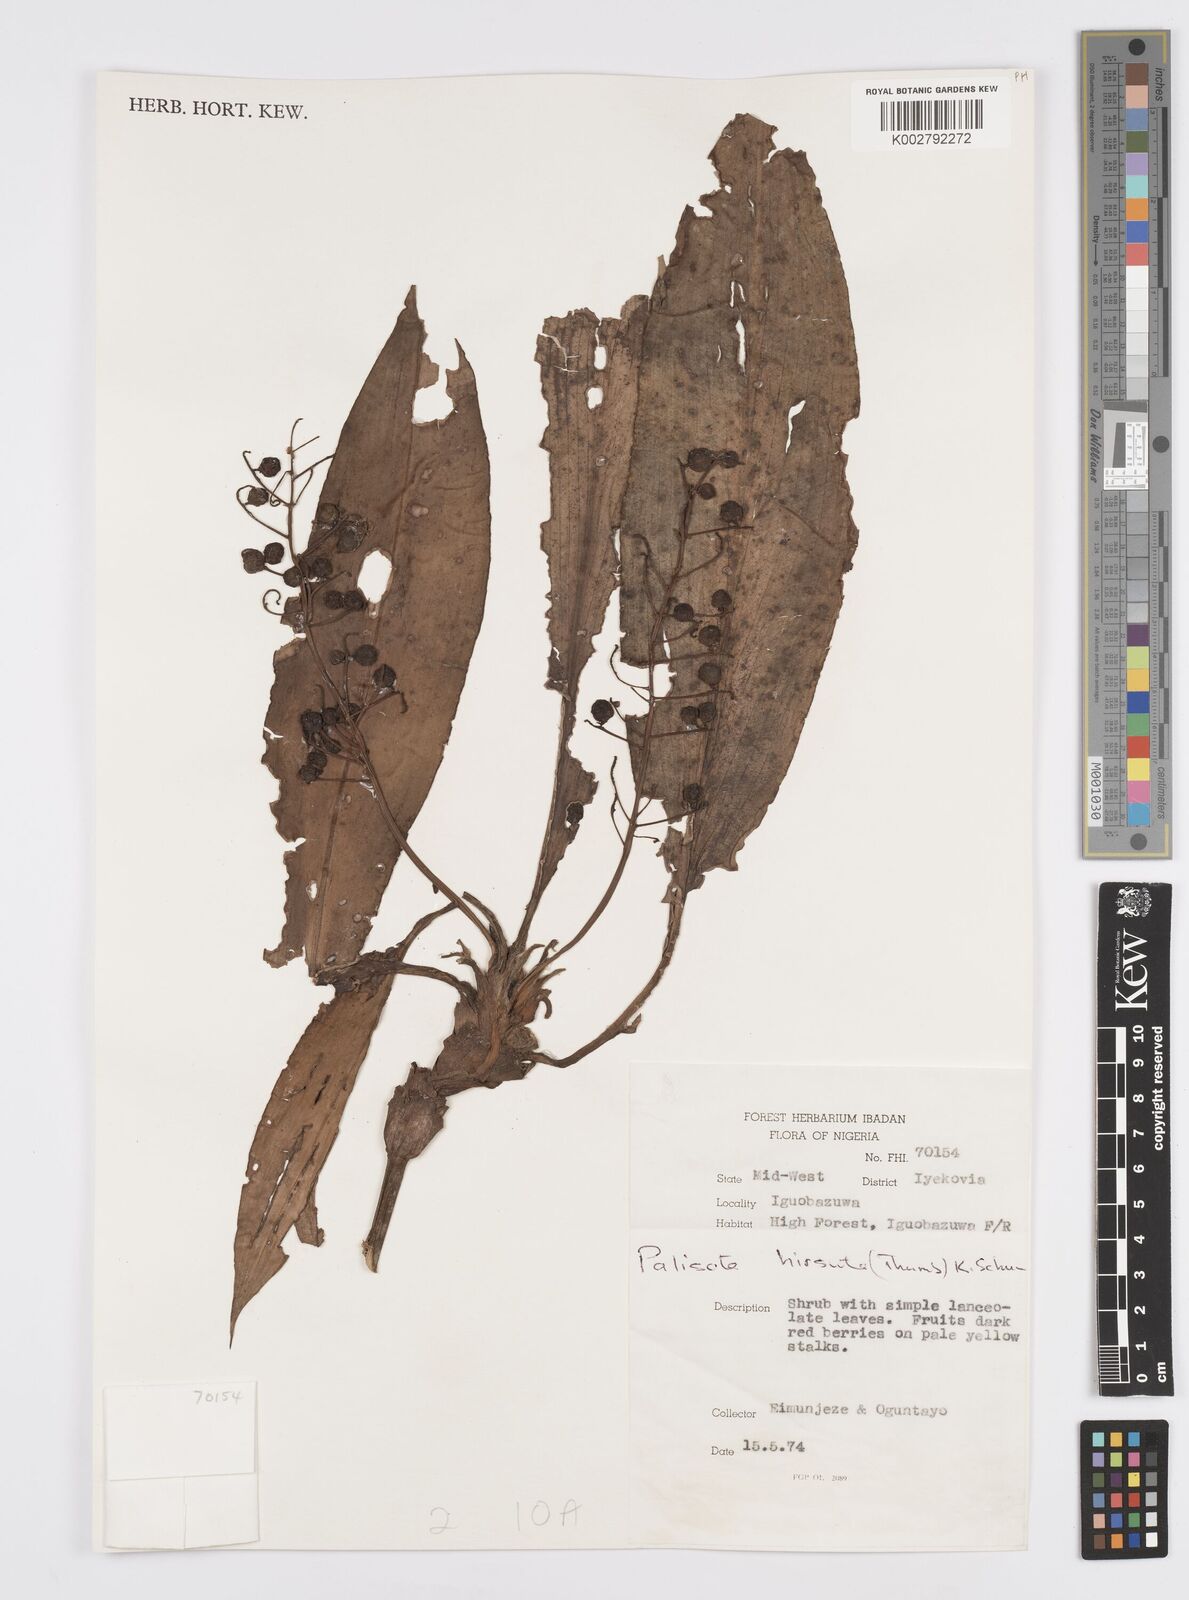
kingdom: Plantae
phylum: Tracheophyta
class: Liliopsida
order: Commelinales
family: Commelinaceae
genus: Palisota
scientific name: Palisota hirsuta
